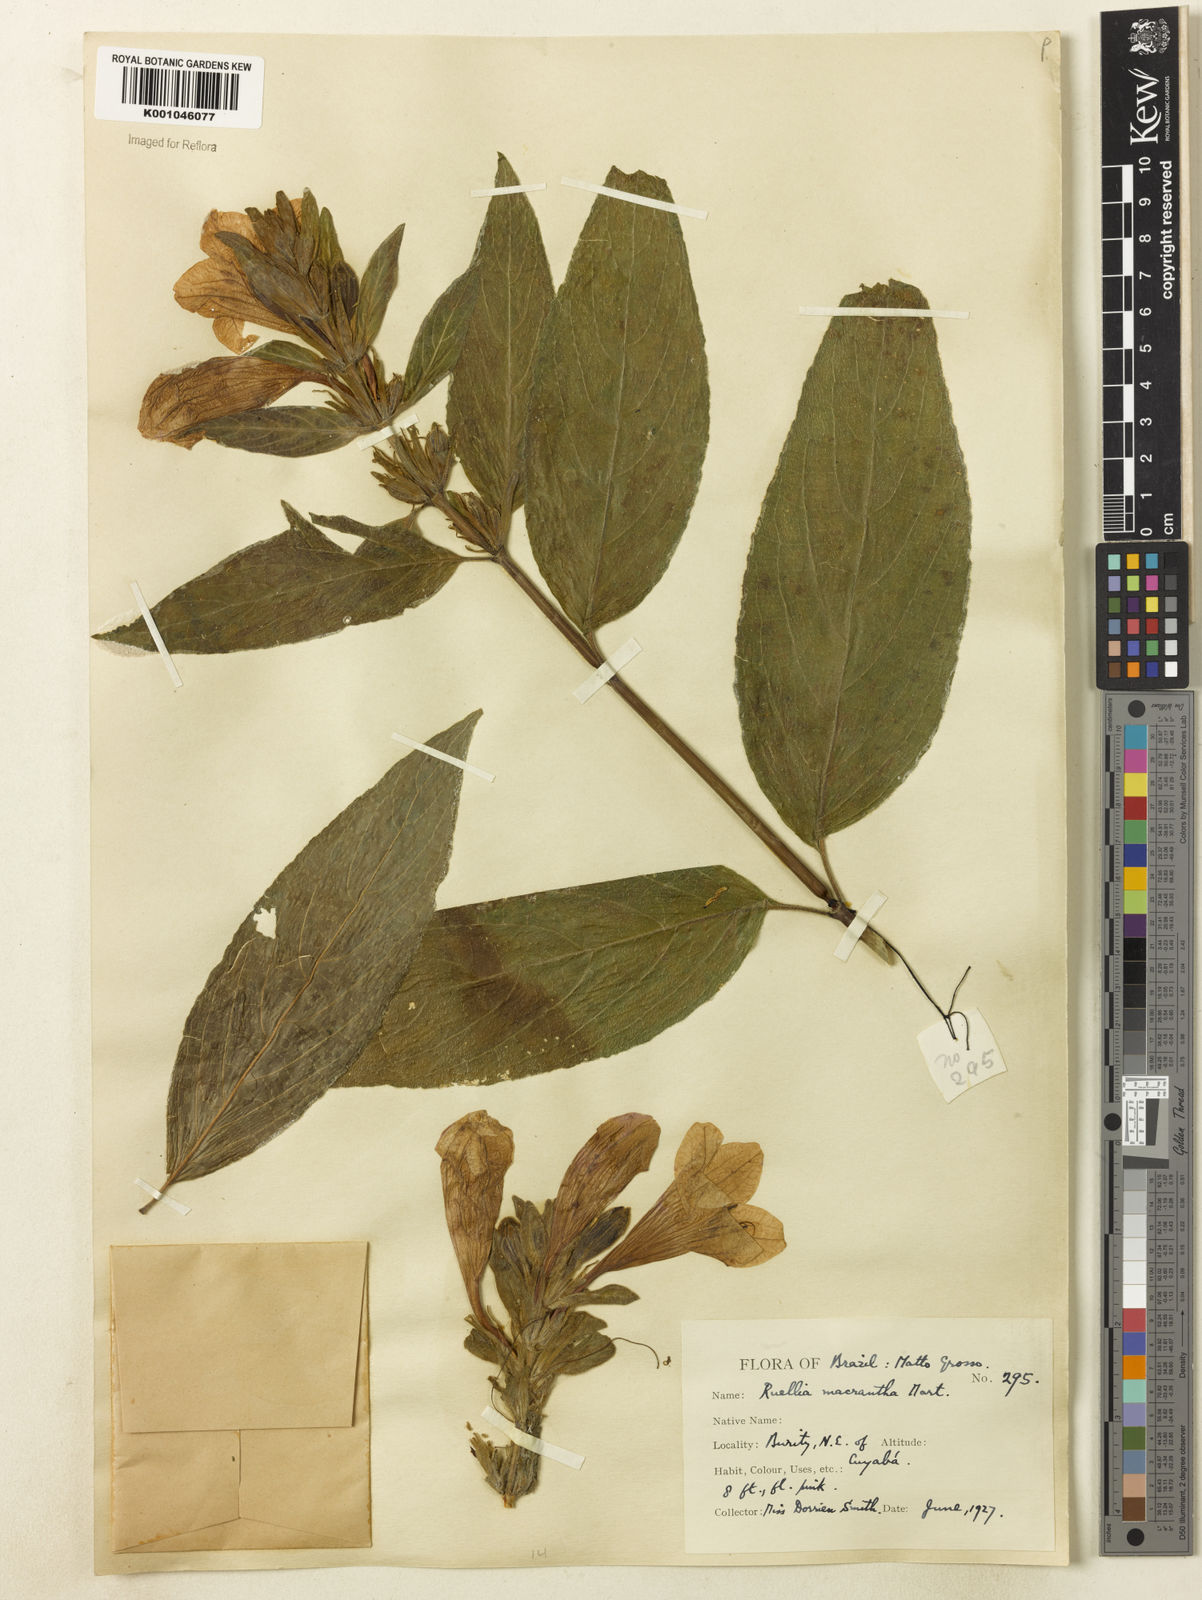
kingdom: Plantae
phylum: Tracheophyta
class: Magnoliopsida
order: Lamiales
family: Acanthaceae
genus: Ruellia
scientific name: Ruellia
